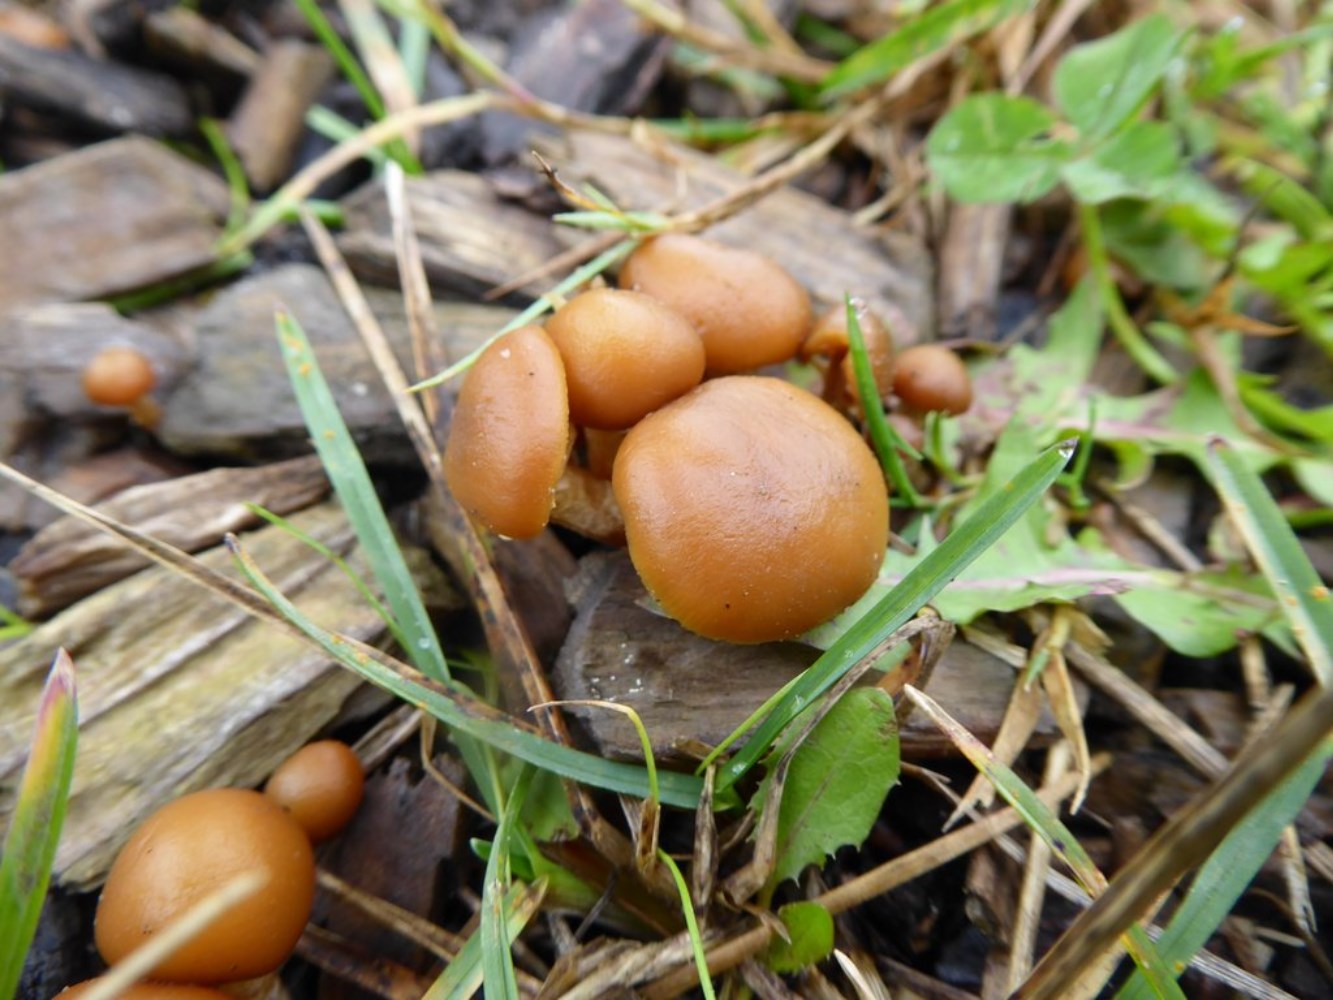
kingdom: Fungi
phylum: Basidiomycota
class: Agaricomycetes
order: Agaricales
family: Hymenogastraceae
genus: Galerina
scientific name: Galerina marginata
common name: randbæltet hjelmhat
